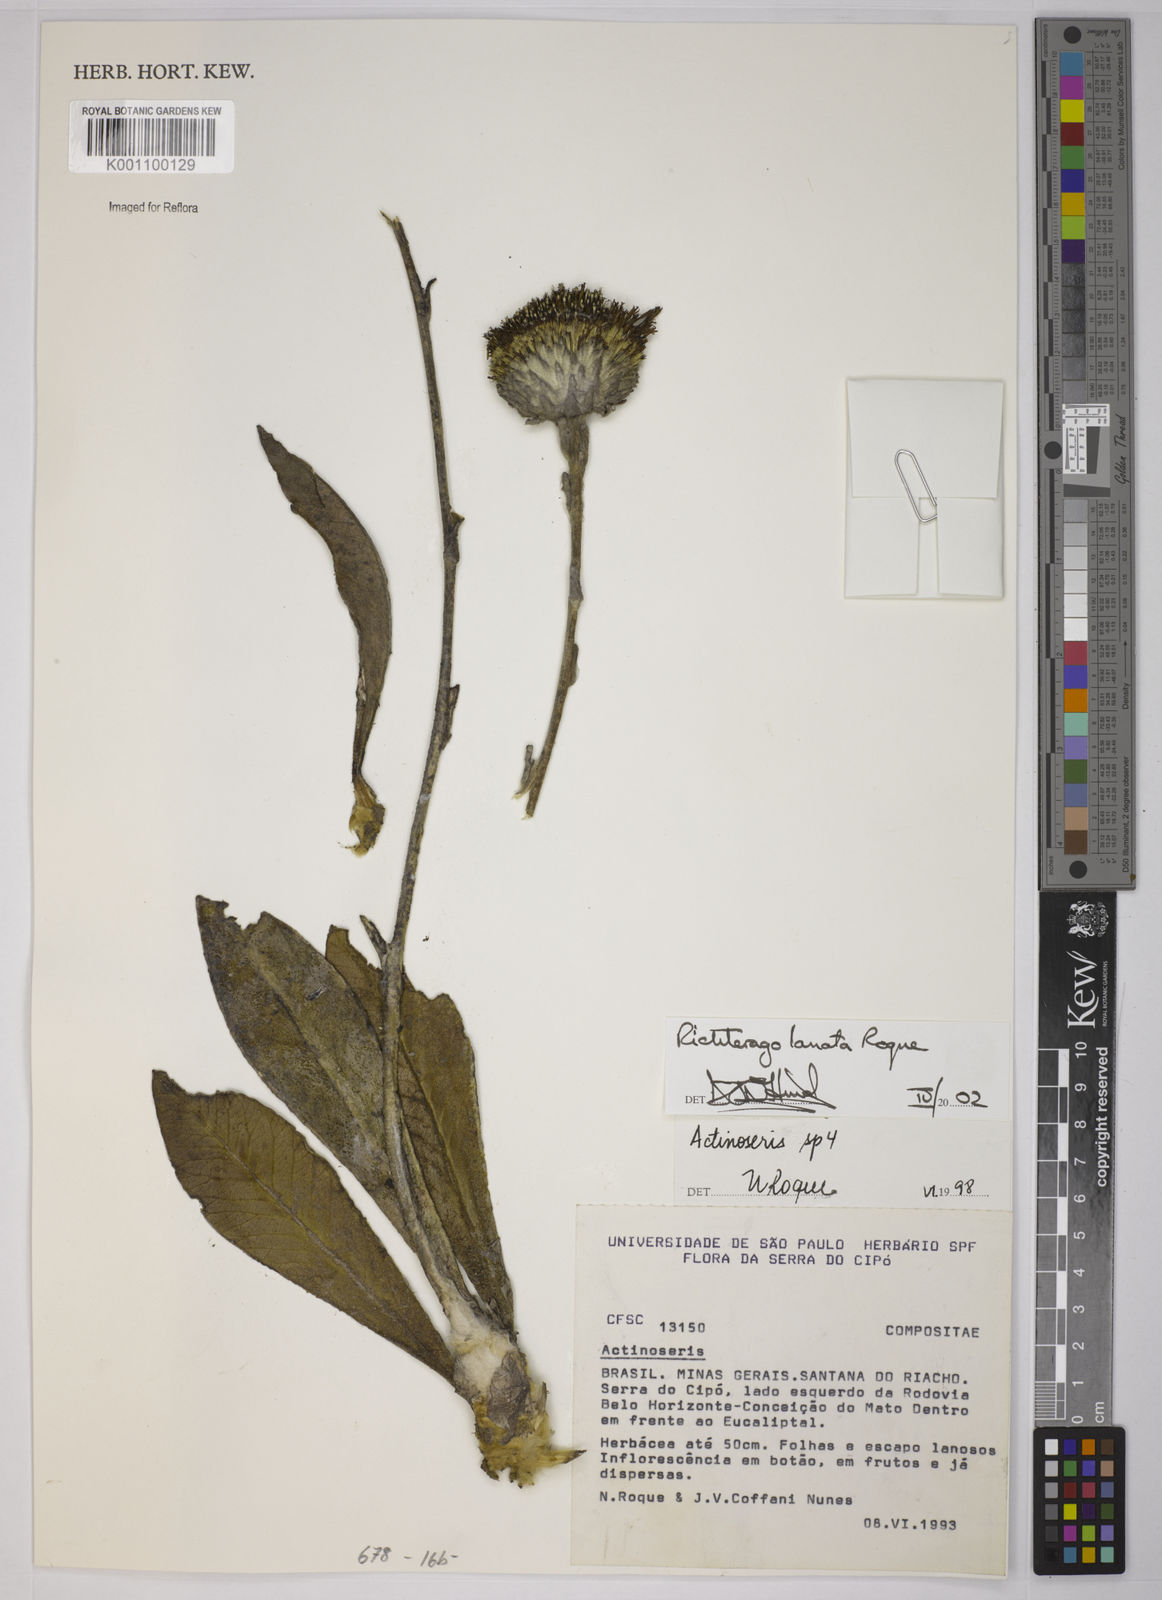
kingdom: Plantae
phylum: Tracheophyta
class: Magnoliopsida
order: Asterales
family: Asteraceae
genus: Richterago
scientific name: Richterago lanata
